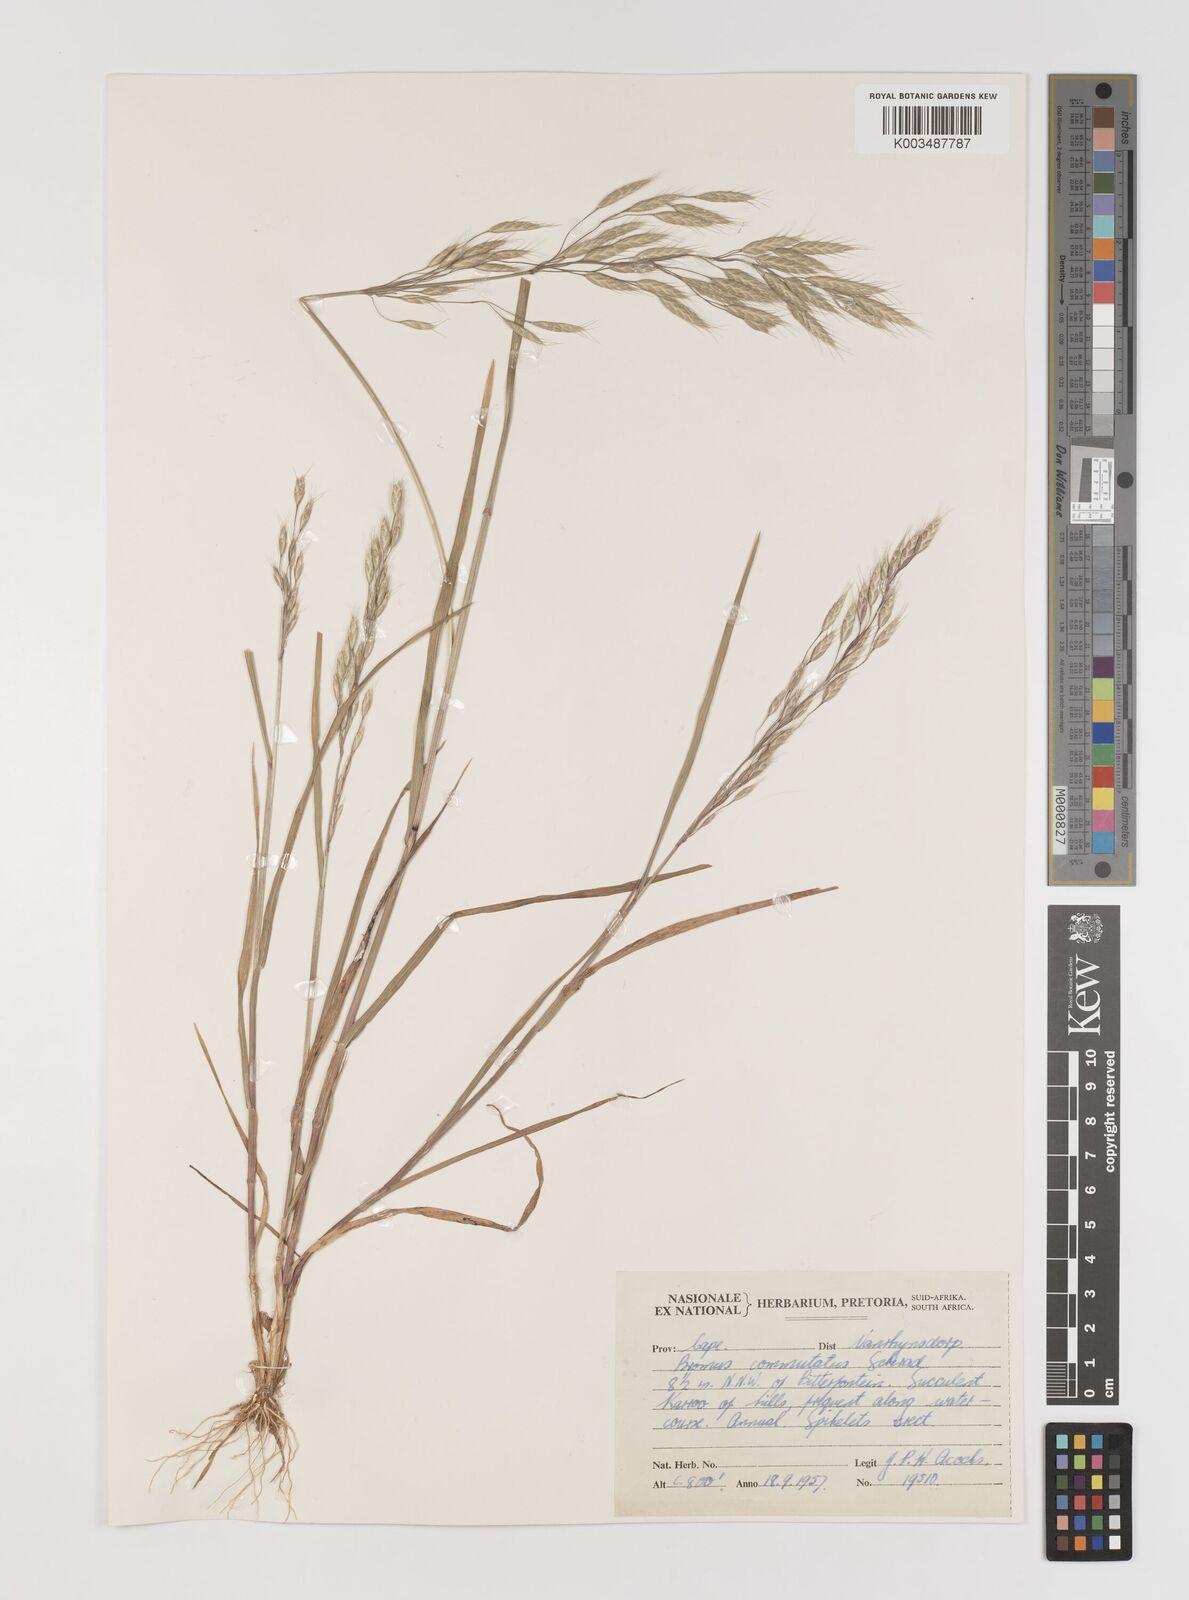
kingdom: Plantae
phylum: Tracheophyta
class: Liliopsida
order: Poales
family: Poaceae
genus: Bromus
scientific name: Bromus racemosus
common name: Bald brome
